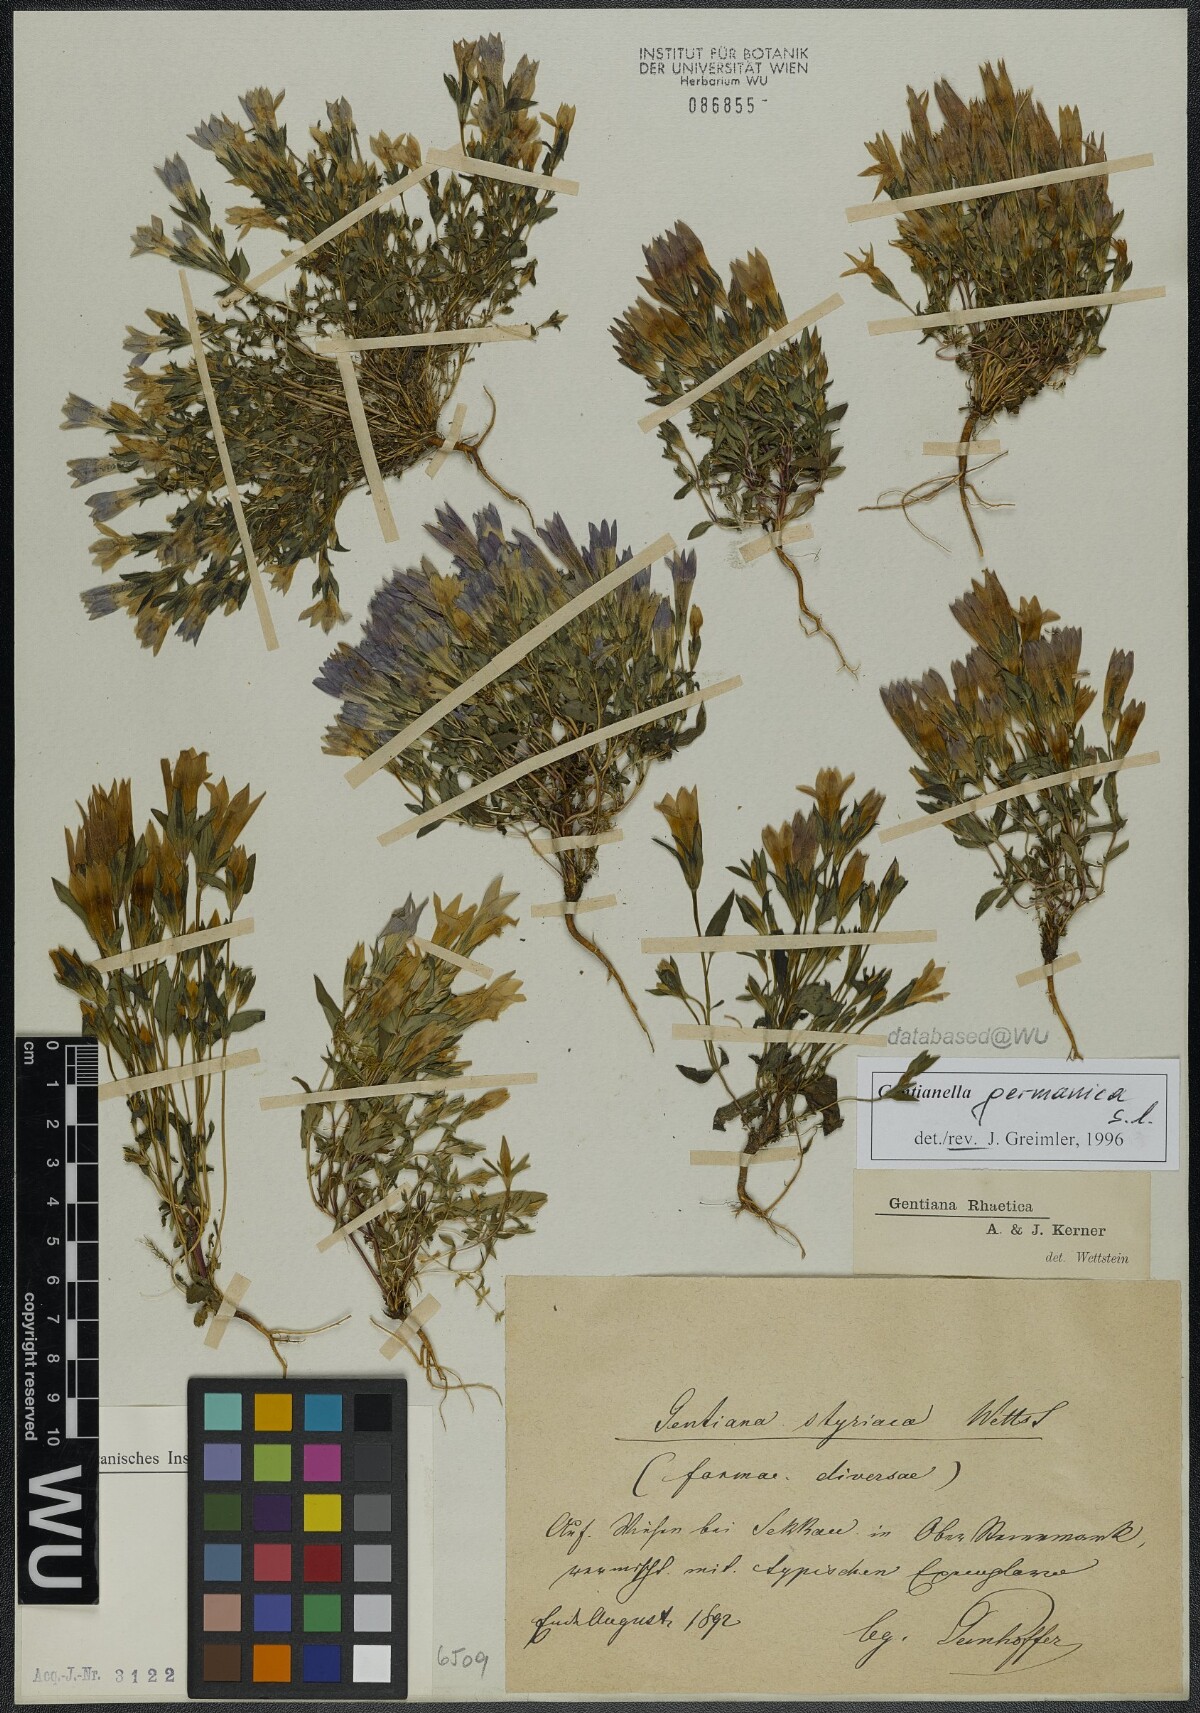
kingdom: Plantae
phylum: Tracheophyta
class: Magnoliopsida
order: Gentianales
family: Gentianaceae
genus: Gentianella
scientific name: Gentianella germanica
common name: Chiltern-gentian
